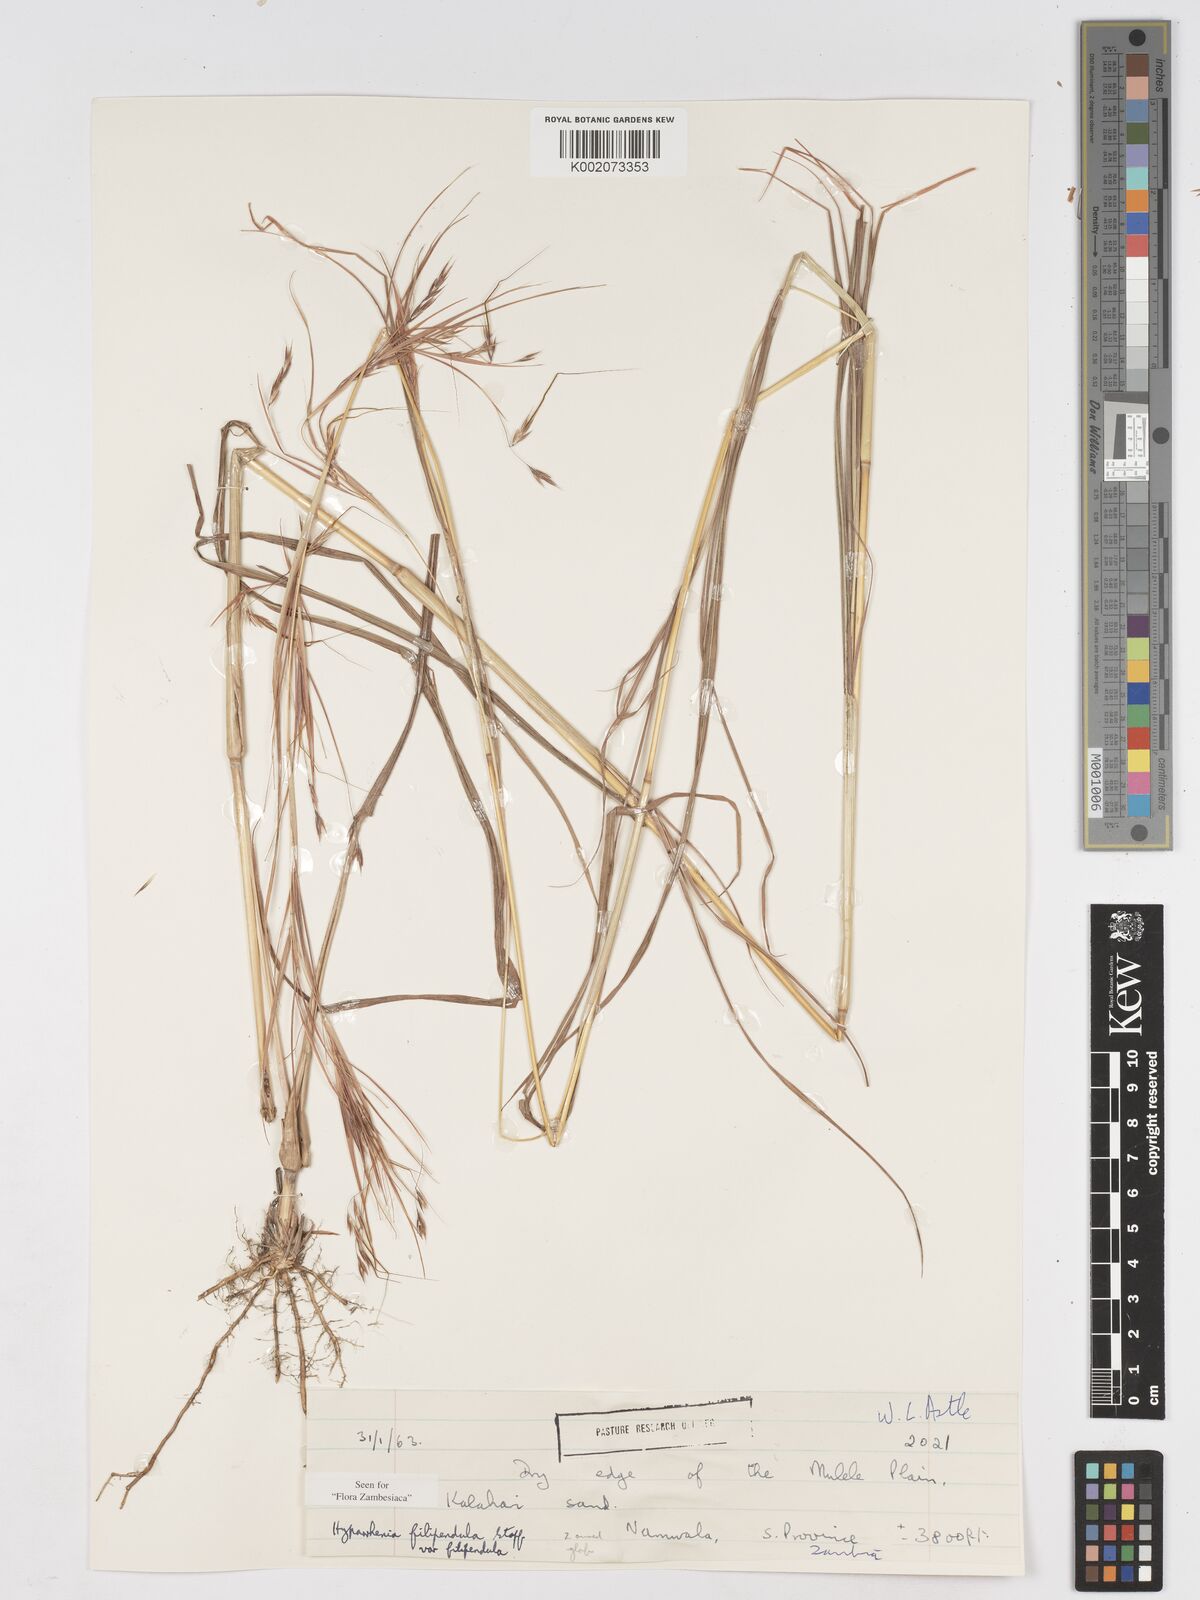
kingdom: Plantae
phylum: Tracheophyta
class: Liliopsida
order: Poales
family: Poaceae
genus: Hyparrhenia
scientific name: Hyparrhenia filipendula
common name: Tambookie grass
